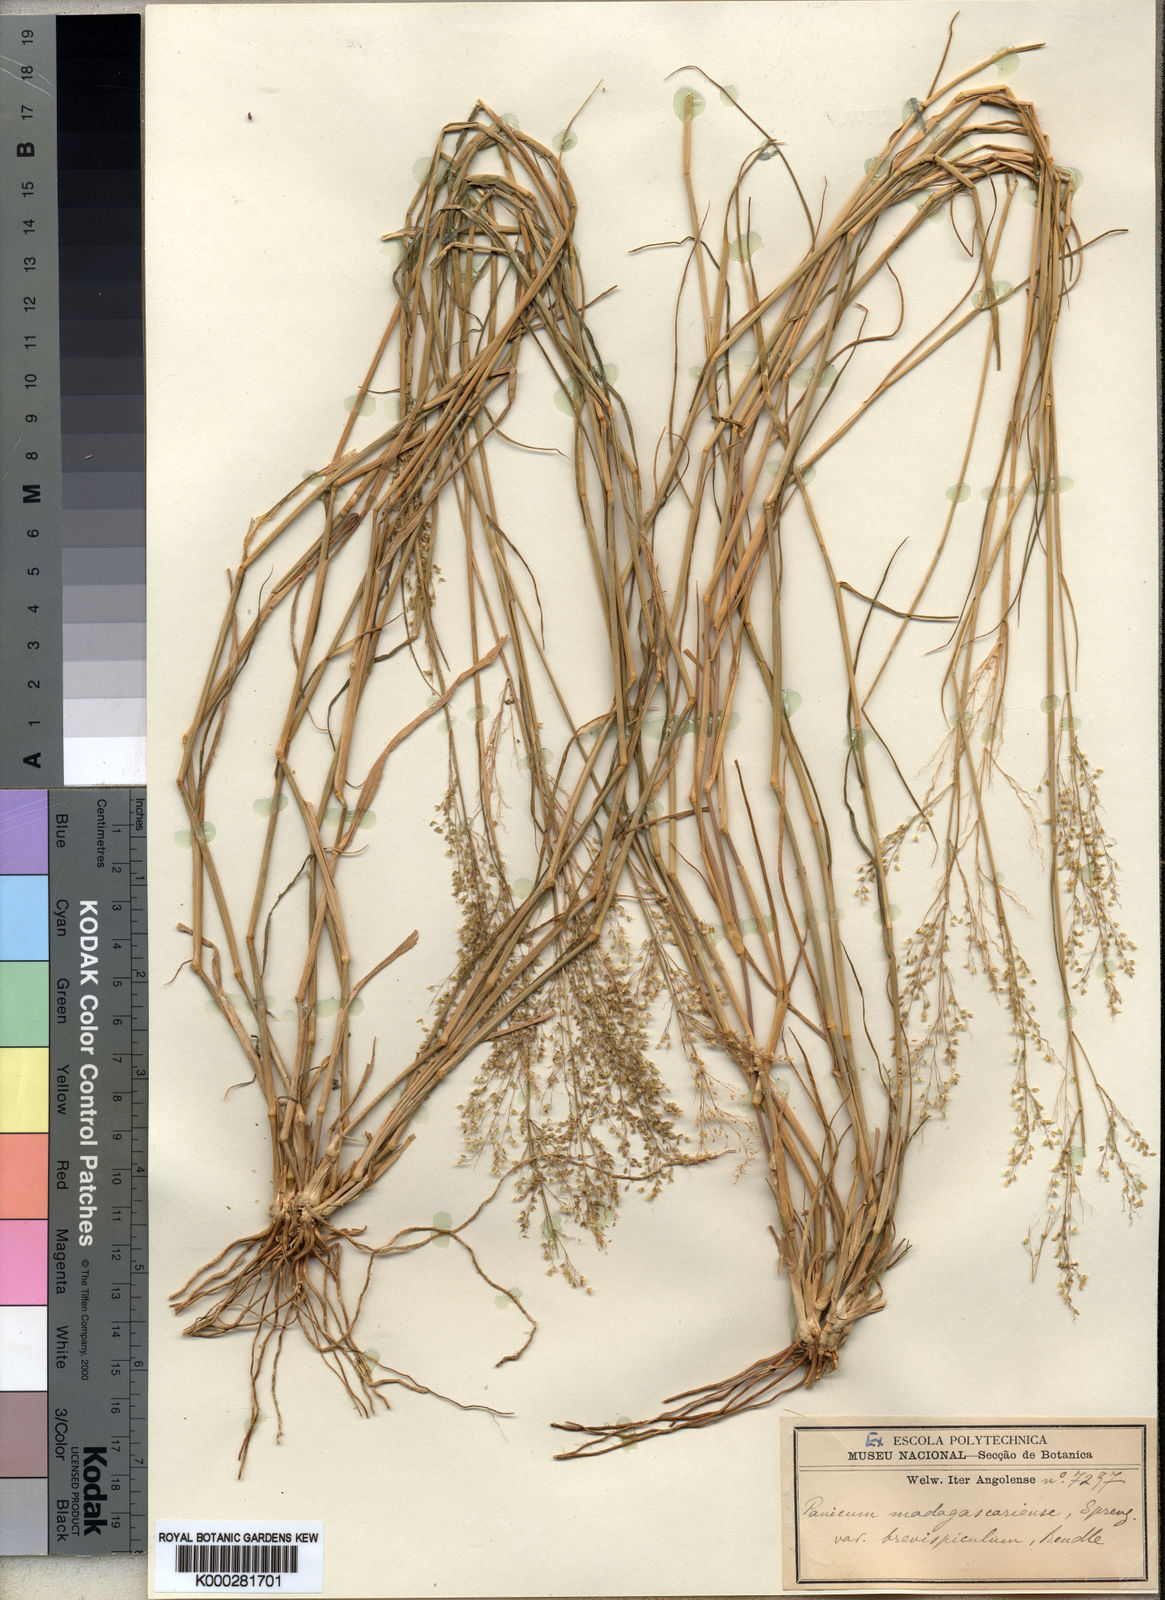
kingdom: Plantae
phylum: Tracheophyta
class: Liliopsida
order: Poales
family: Poaceae
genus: Tricholaena
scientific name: Tricholaena monachne
